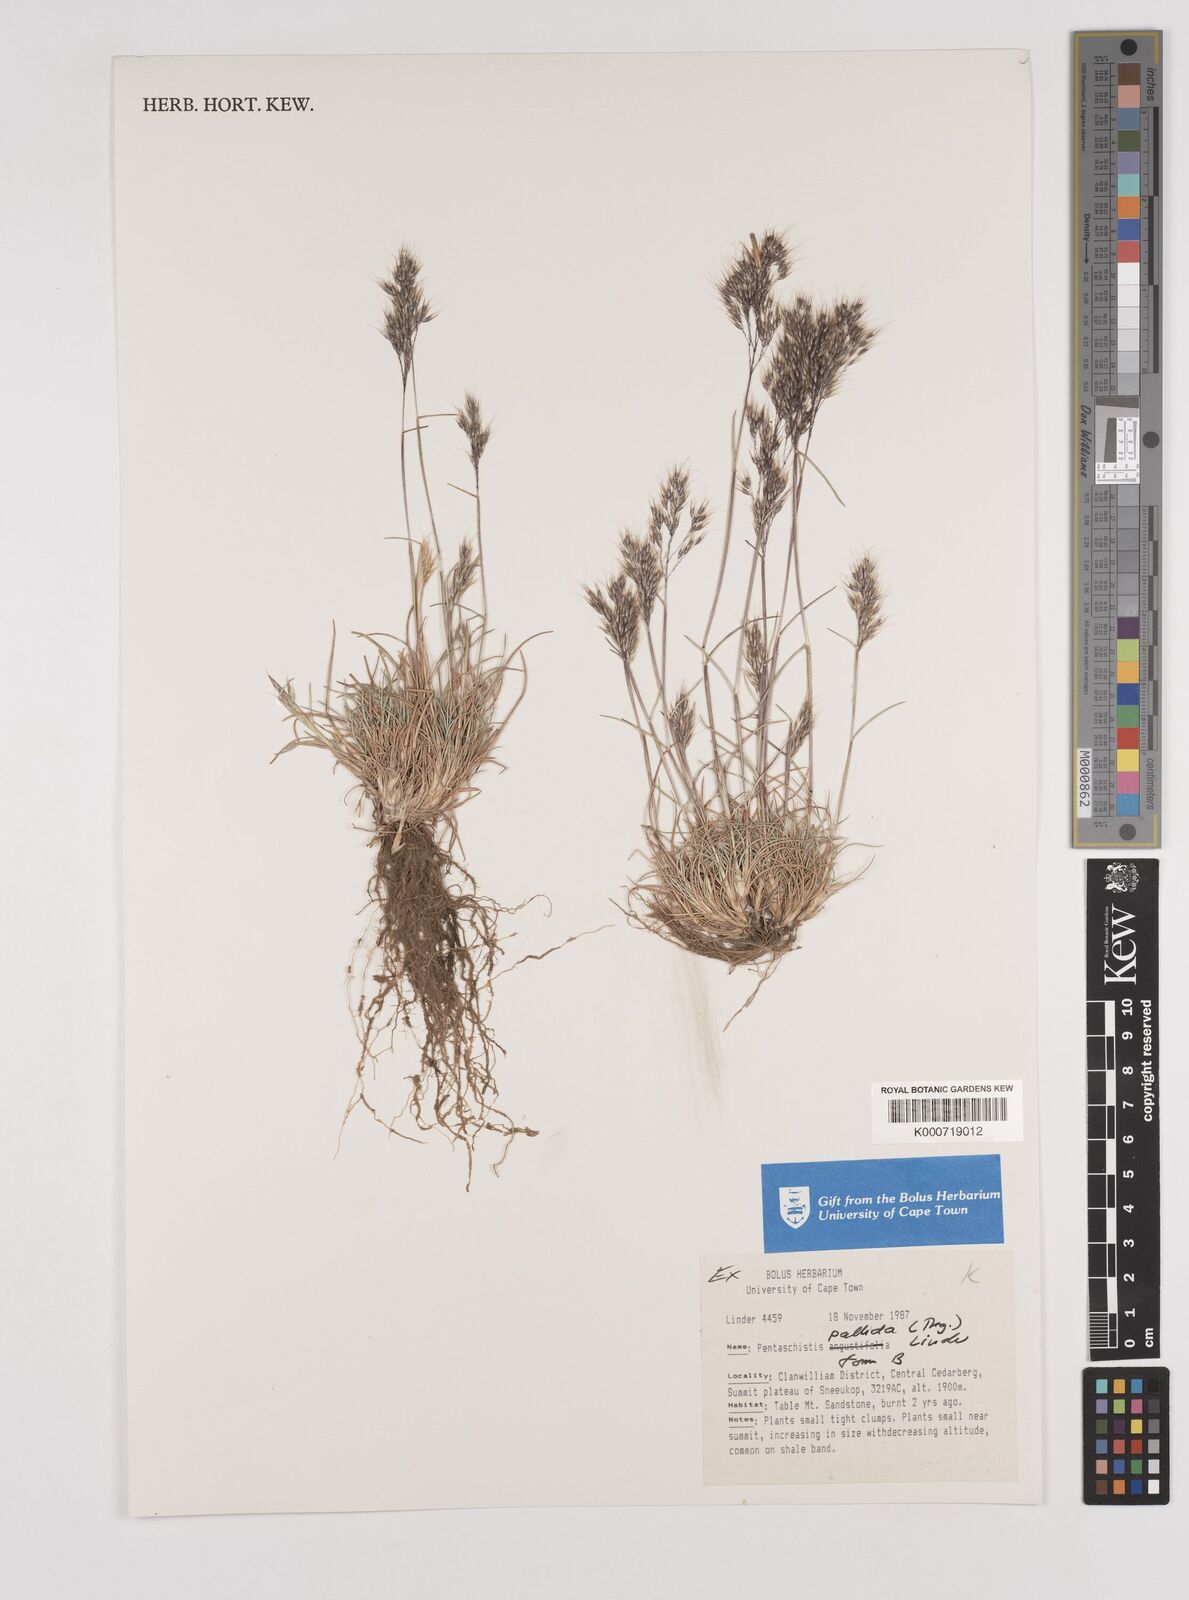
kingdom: Plantae
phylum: Tracheophyta
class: Liliopsida
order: Poales
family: Poaceae
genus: Pentameris
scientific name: Pentameris pallida
